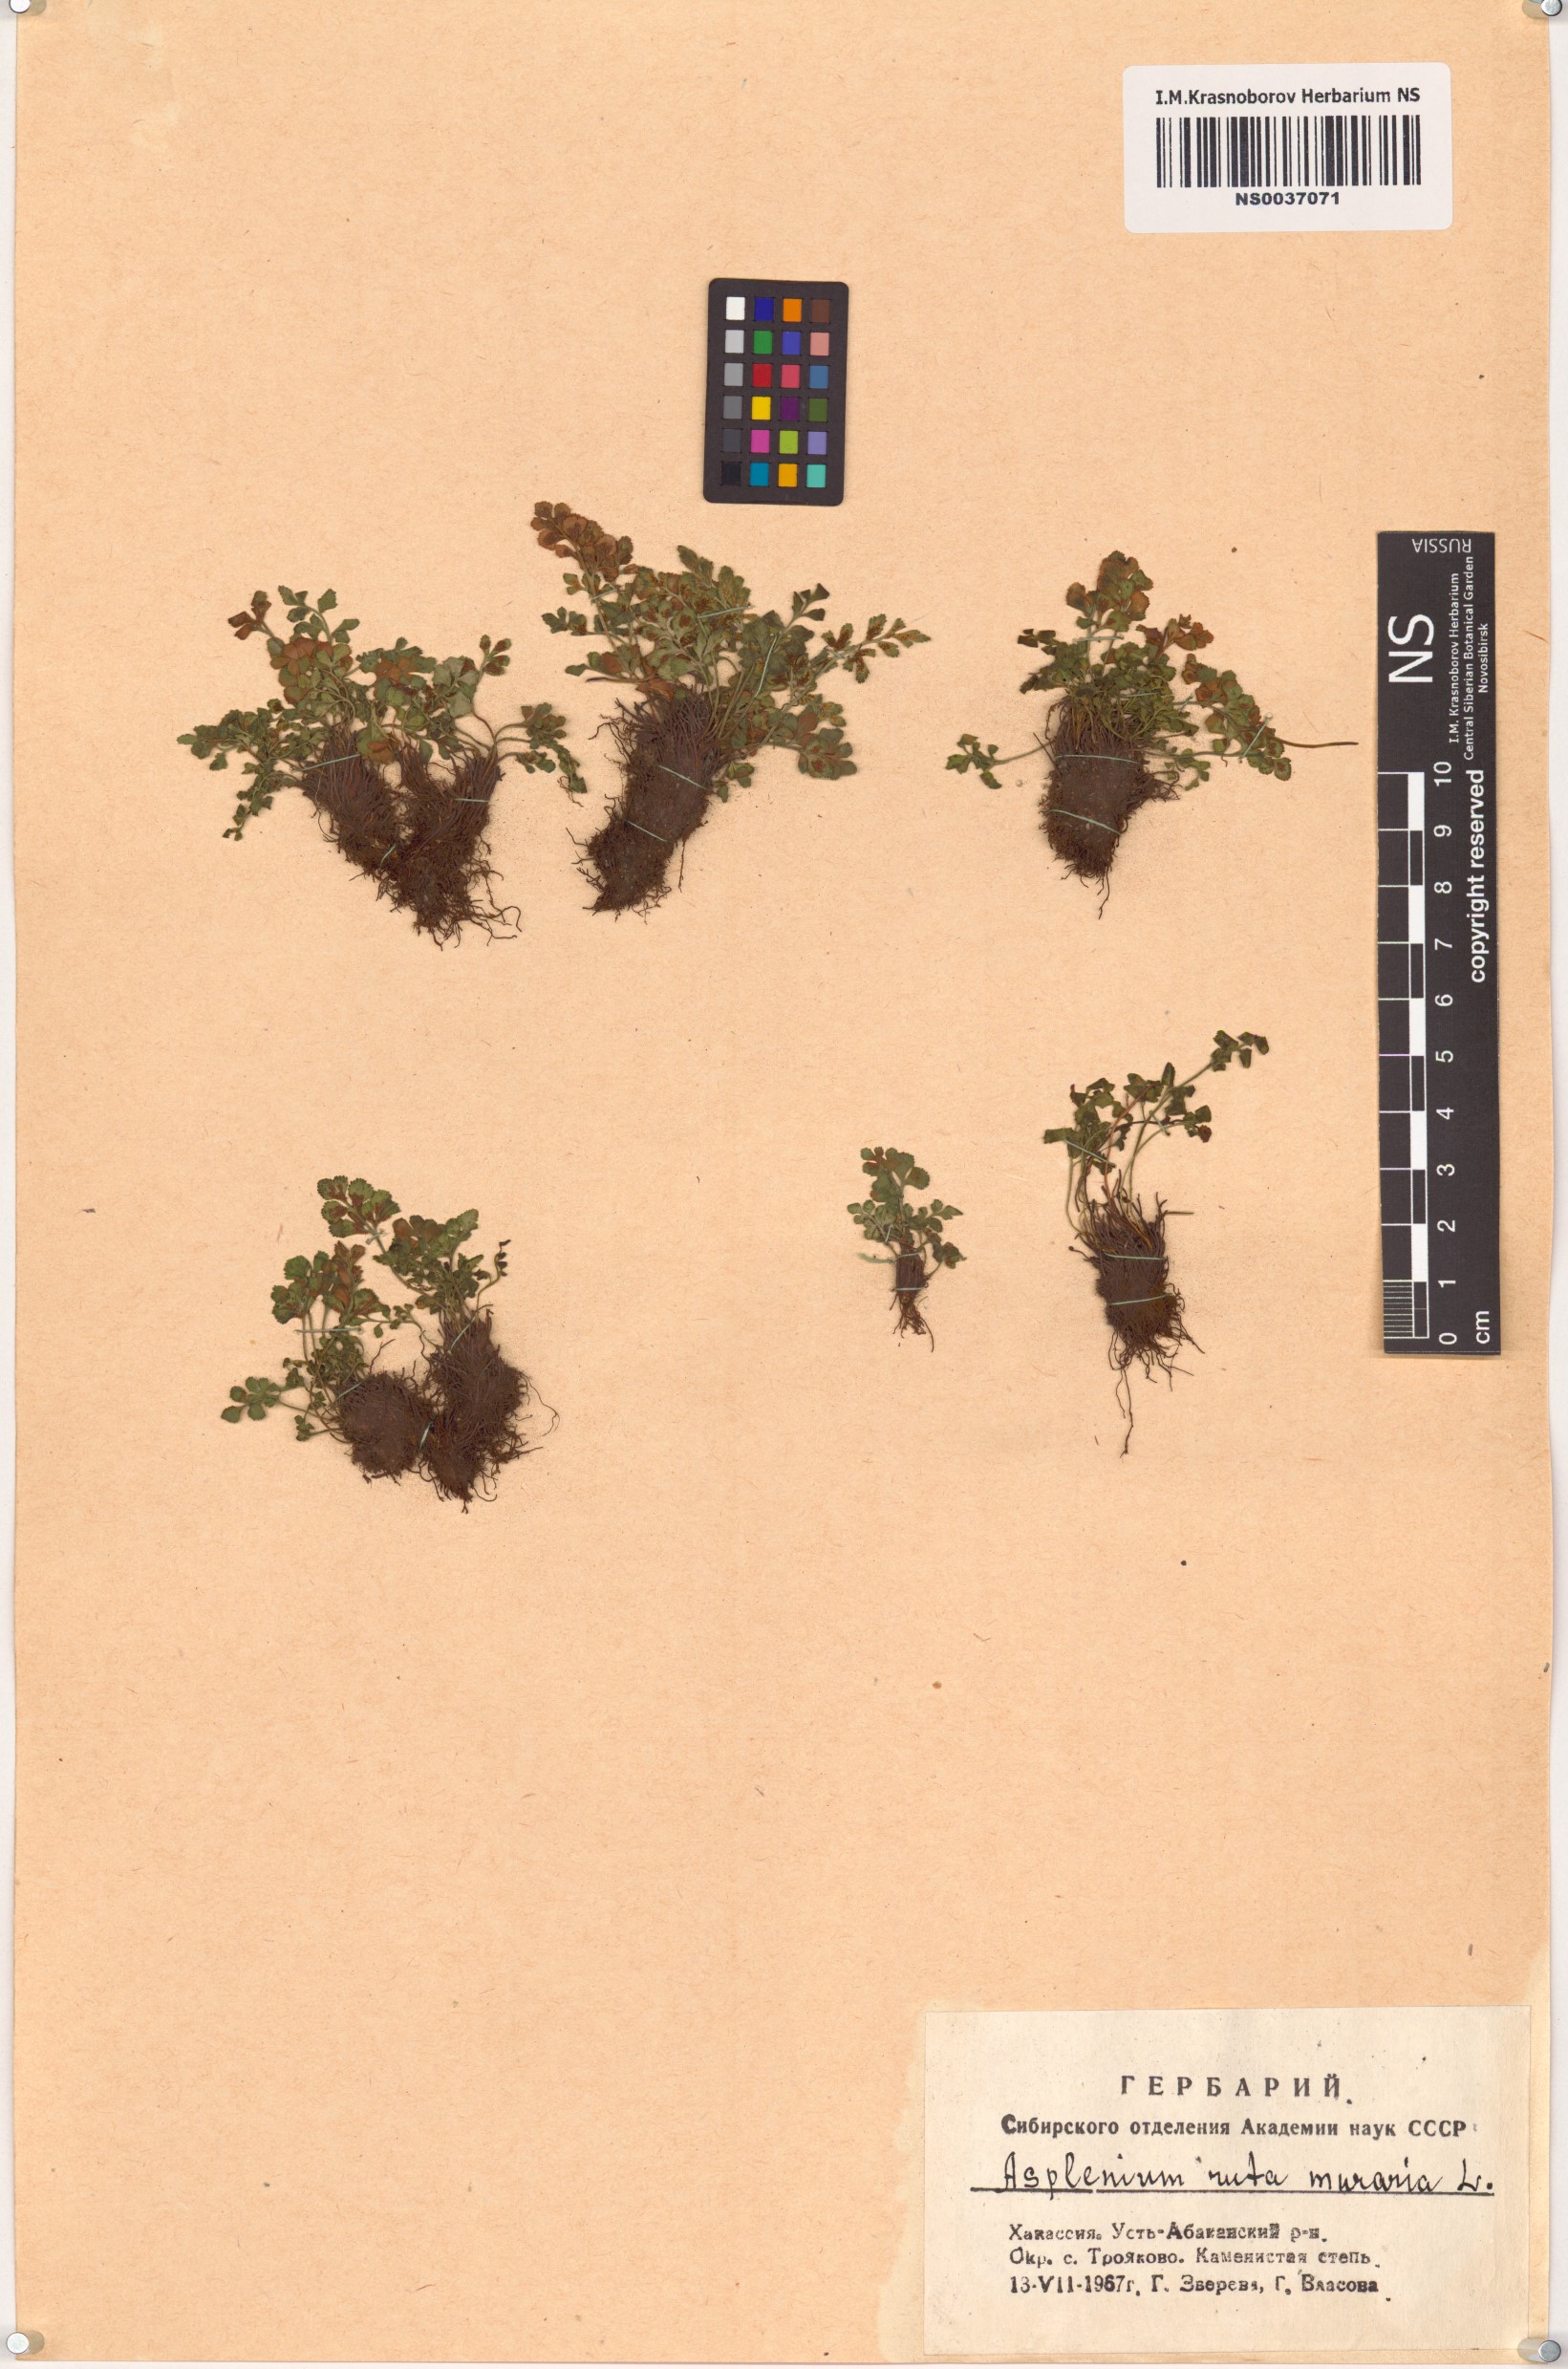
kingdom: Plantae
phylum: Tracheophyta
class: Polypodiopsida
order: Polypodiales
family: Aspleniaceae
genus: Asplenium
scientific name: Asplenium ruta-muraria
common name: Wall-rue
